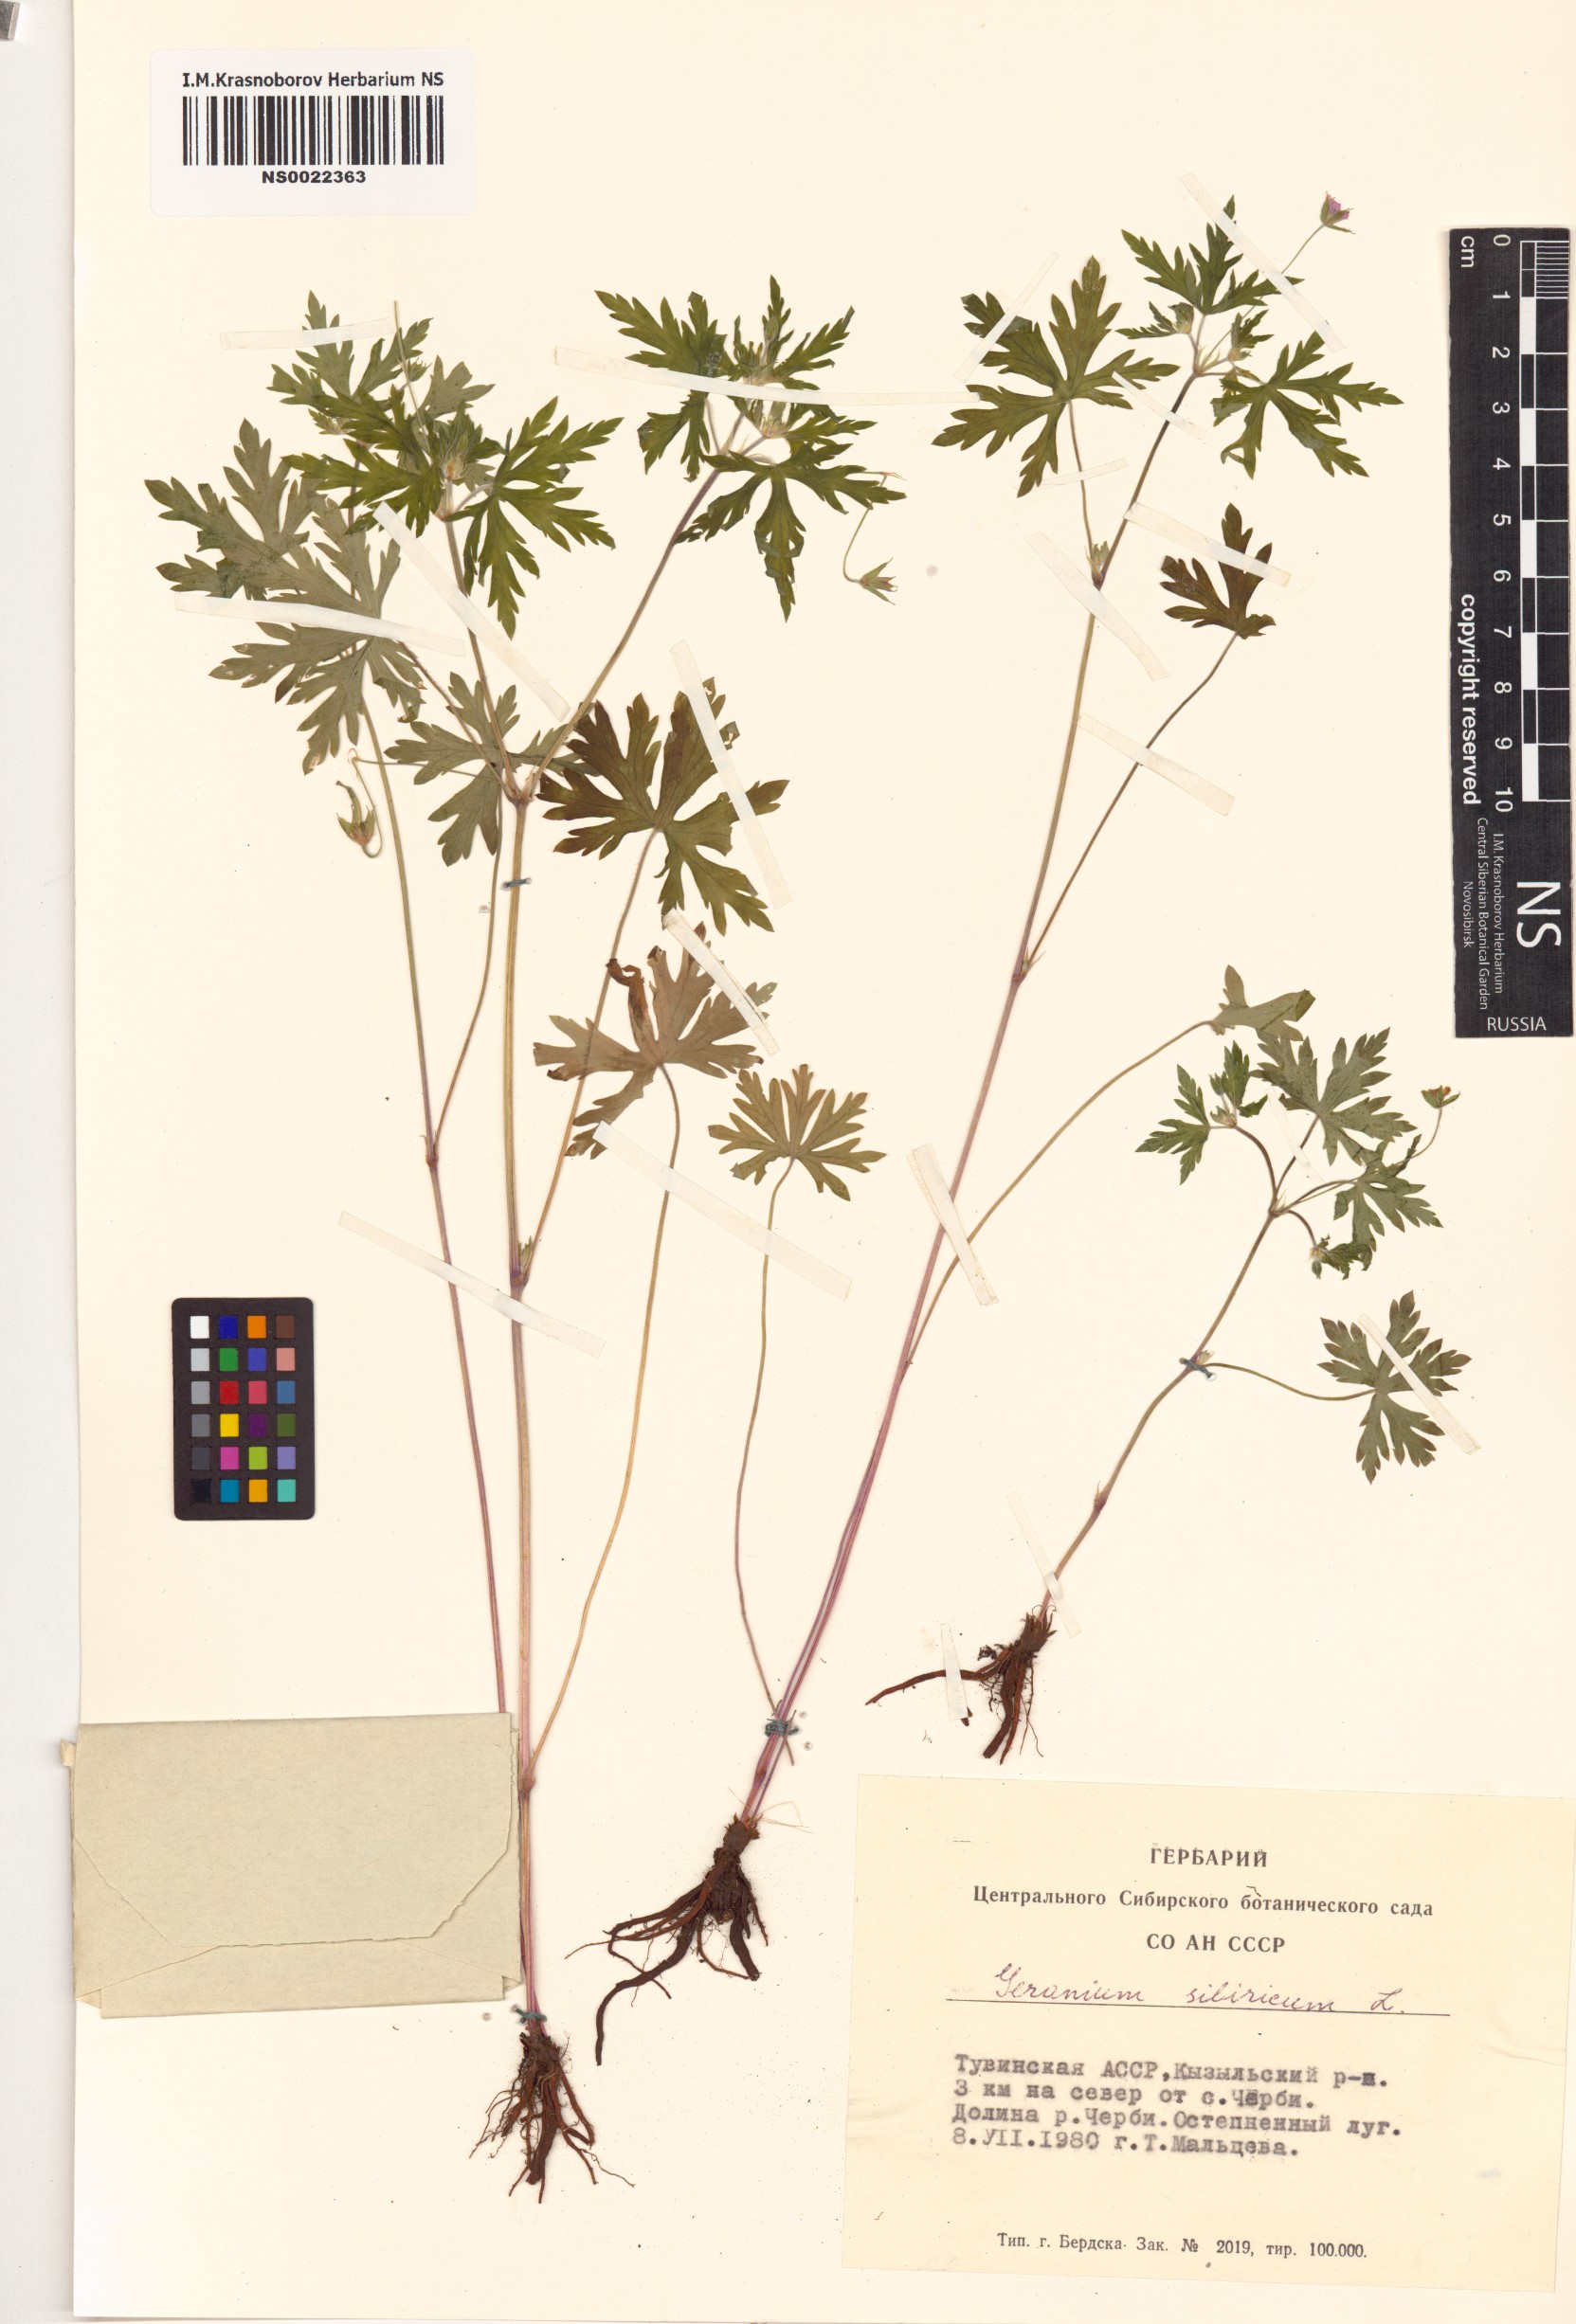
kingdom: Plantae
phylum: Tracheophyta
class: Magnoliopsida
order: Geraniales
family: Geraniaceae
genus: Geranium
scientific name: Geranium sibiricum
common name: Siberian crane's-bill
